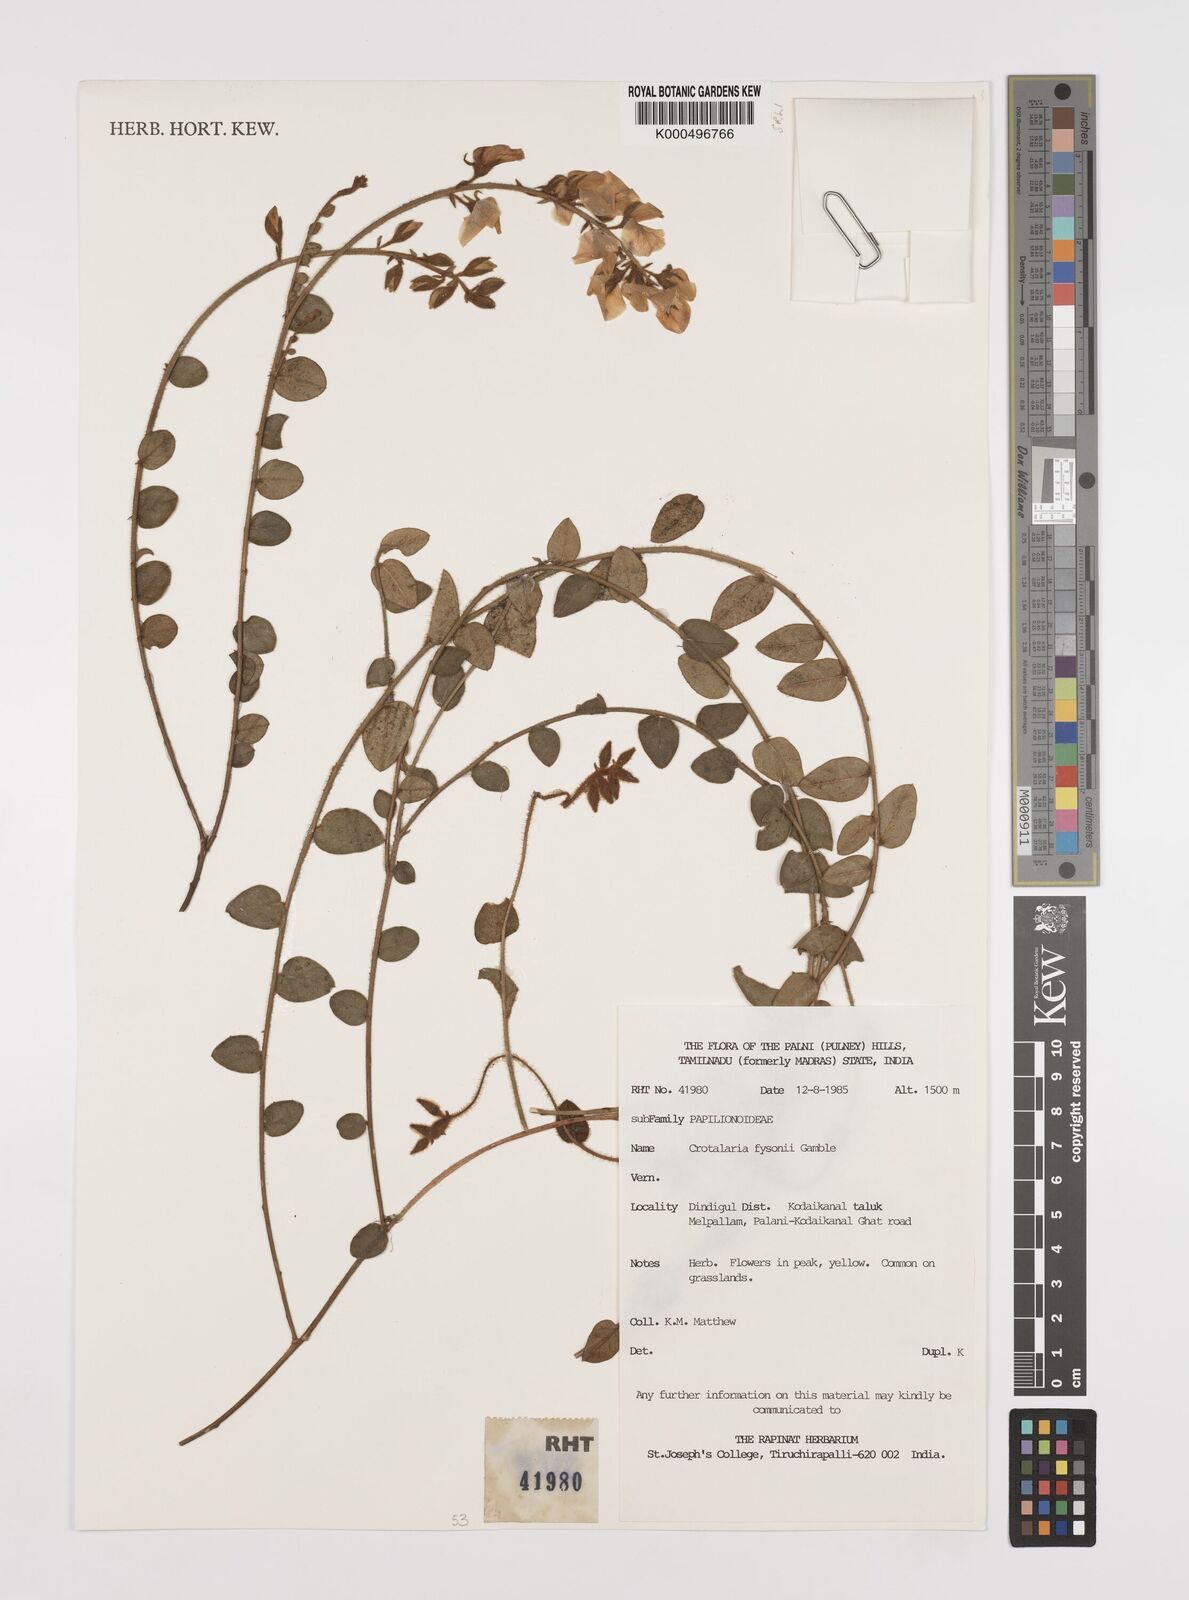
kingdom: Plantae
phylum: Tracheophyta
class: Magnoliopsida
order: Fabales
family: Fabaceae
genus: Crotalaria
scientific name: Crotalaria fysonii
